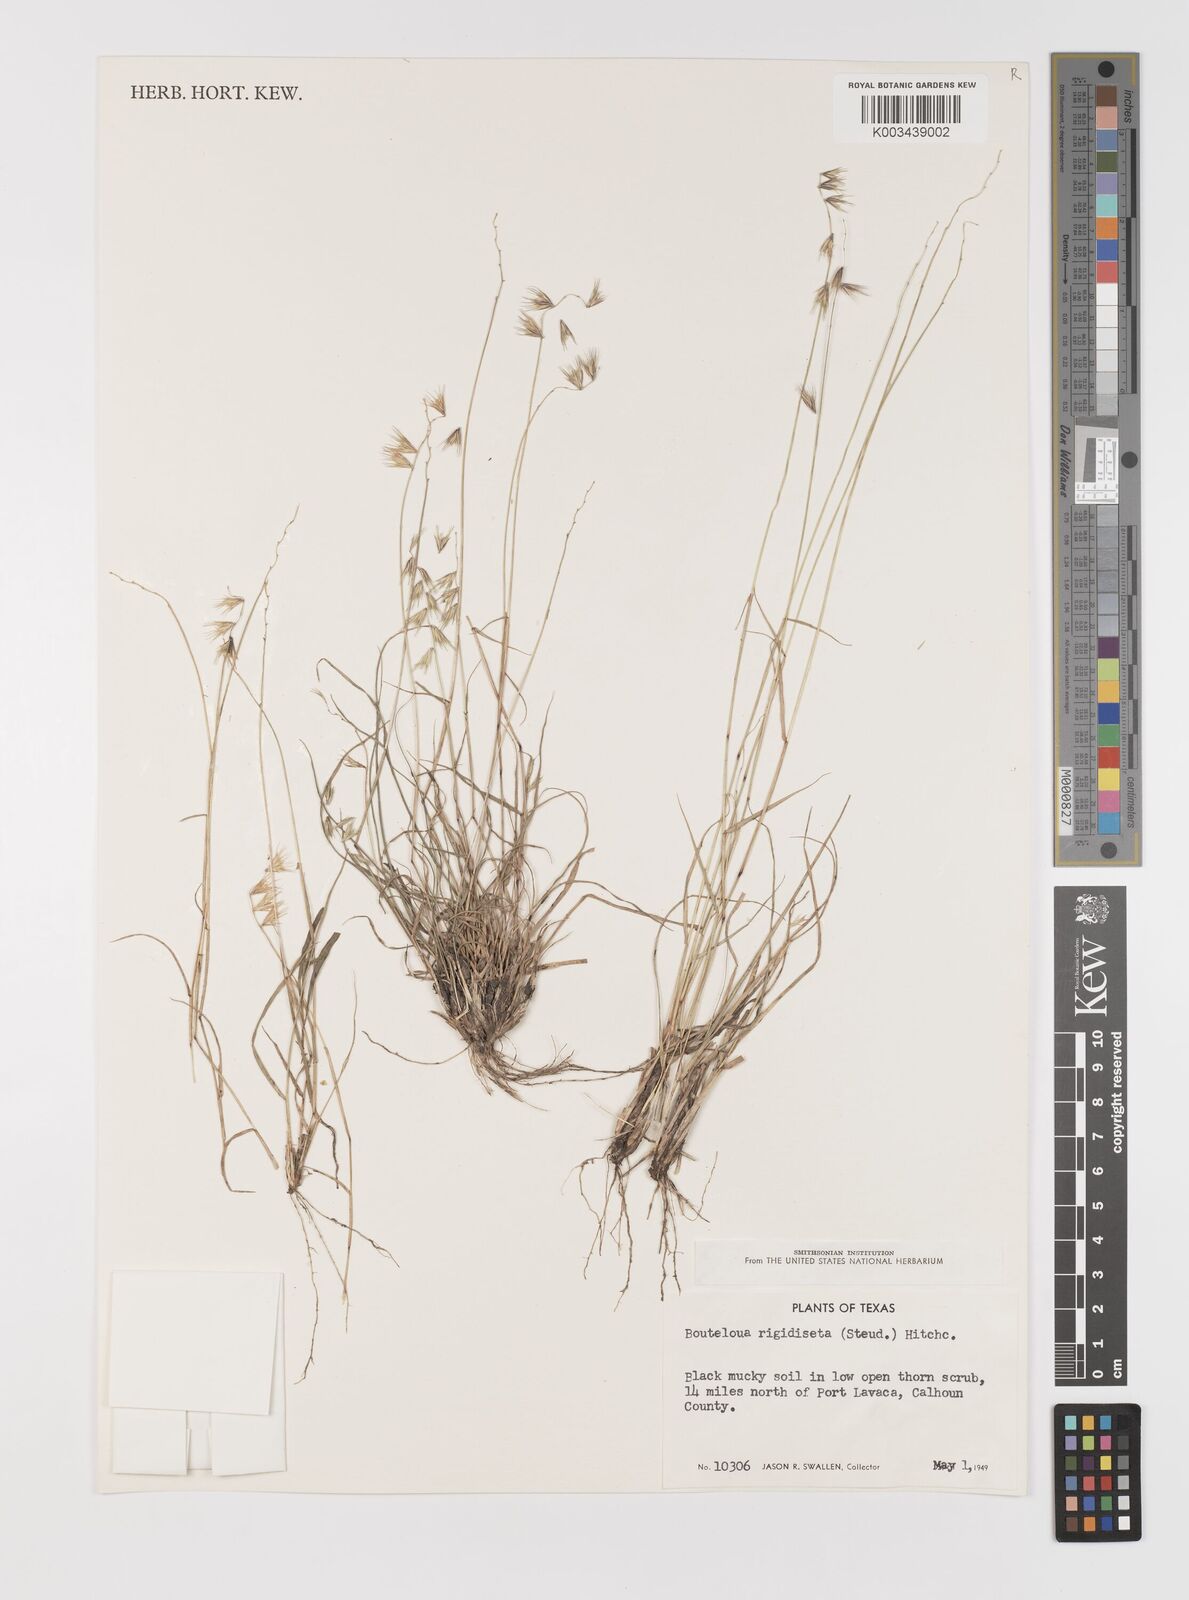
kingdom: Plantae
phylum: Tracheophyta
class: Liliopsida
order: Poales
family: Poaceae
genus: Bouteloua
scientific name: Bouteloua rigidiseta
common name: Texas grama
